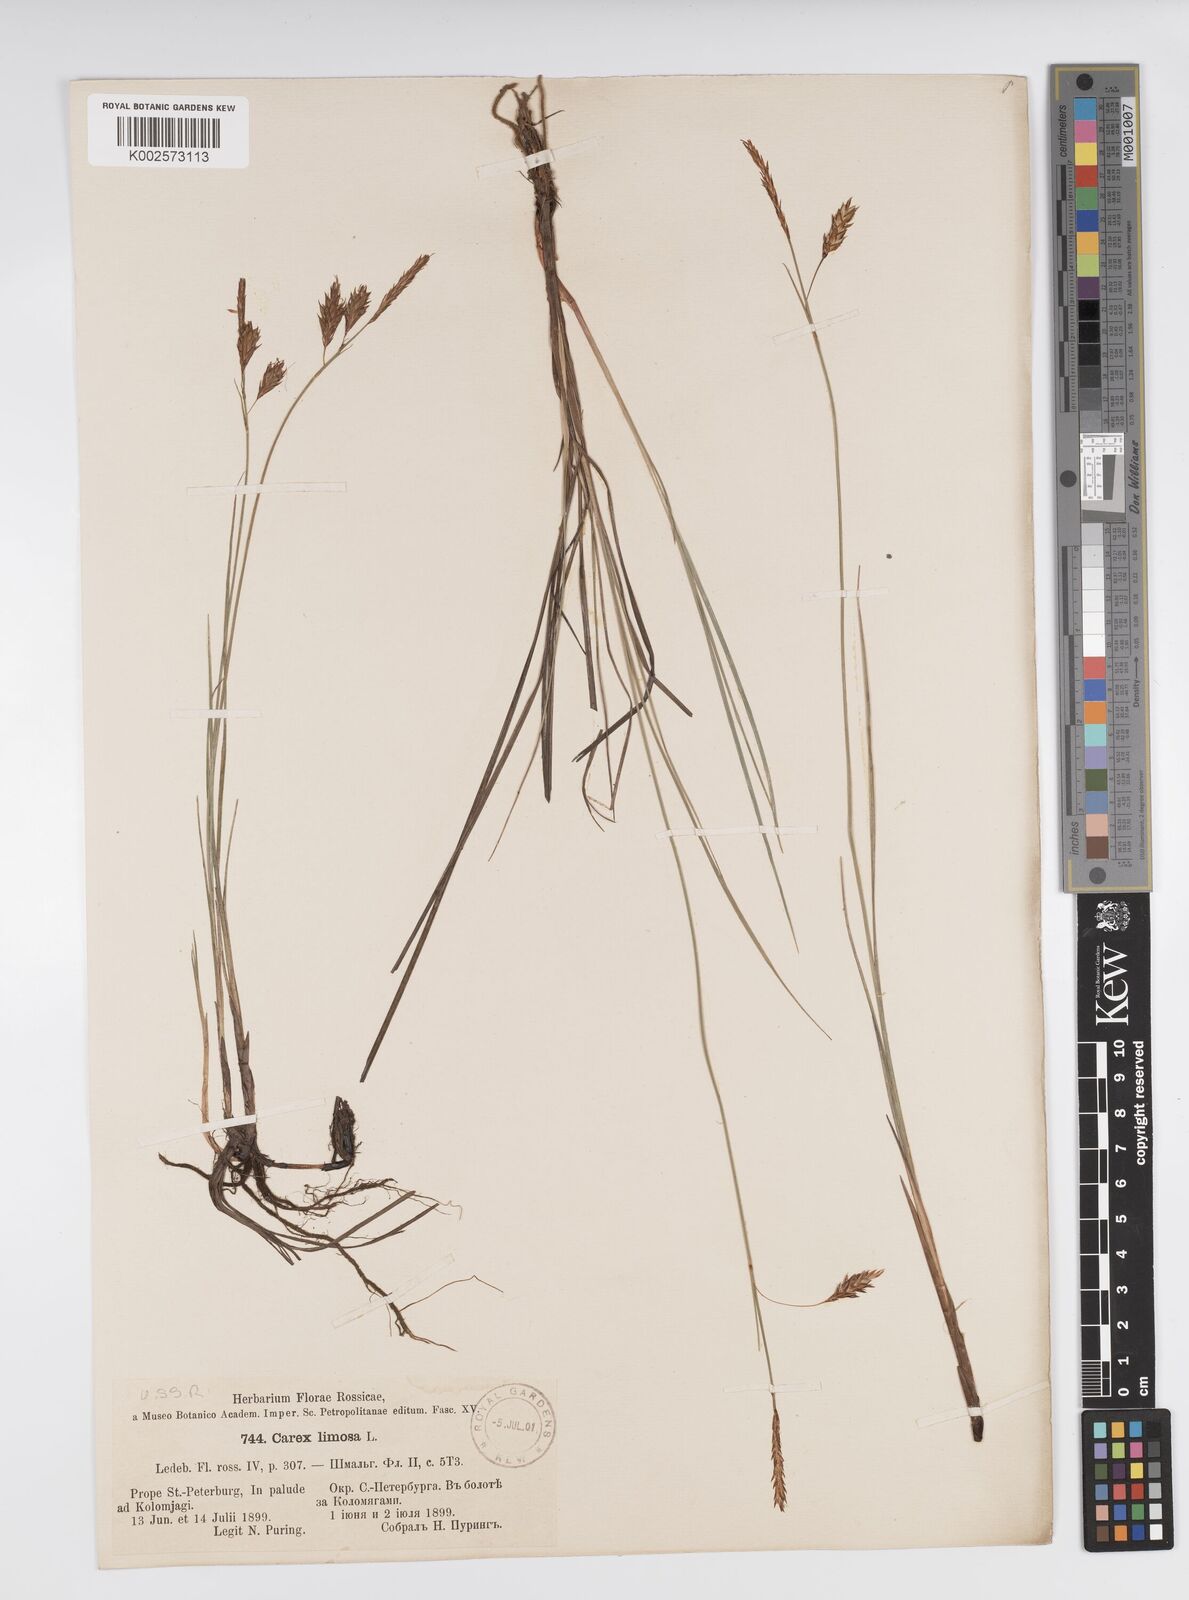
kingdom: Plantae
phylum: Tracheophyta
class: Liliopsida
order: Poales
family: Cyperaceae
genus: Carex
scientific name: Carex limosa
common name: Bog sedge
